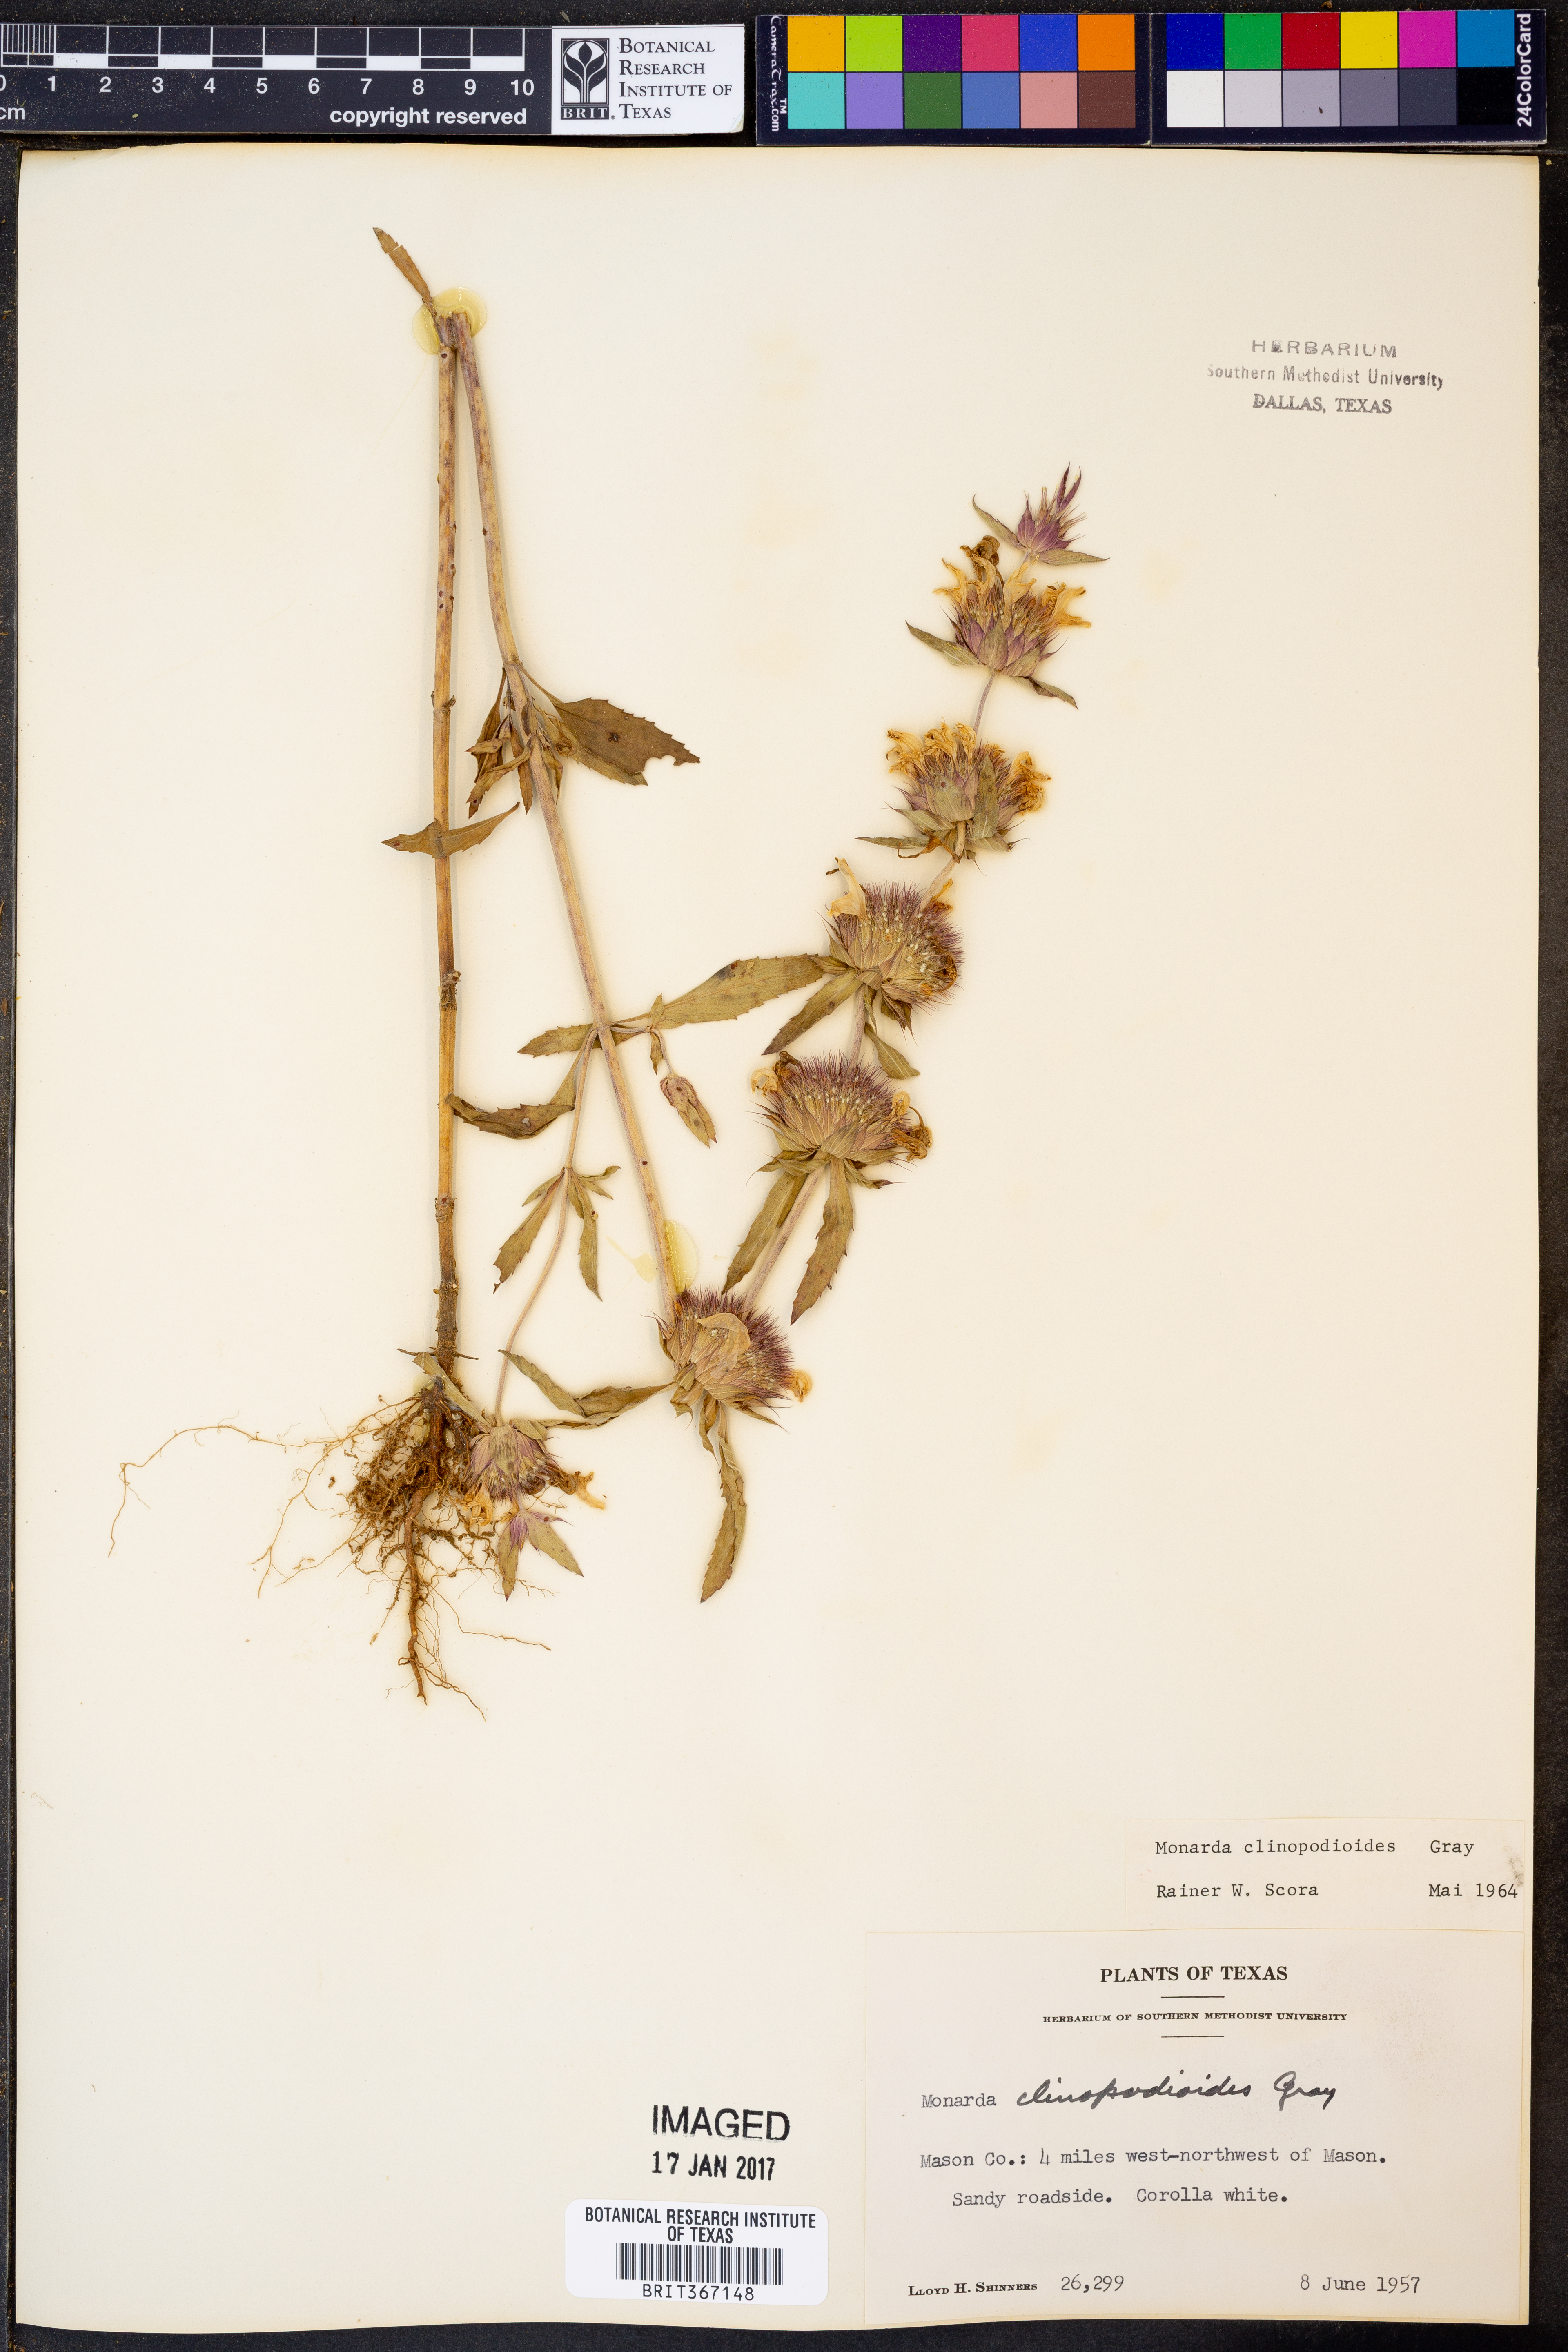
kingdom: Plantae
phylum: Tracheophyta
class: Magnoliopsida
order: Lamiales
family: Lamiaceae
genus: Monarda
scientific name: Monarda clinopodioides
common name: Basil beebalm
